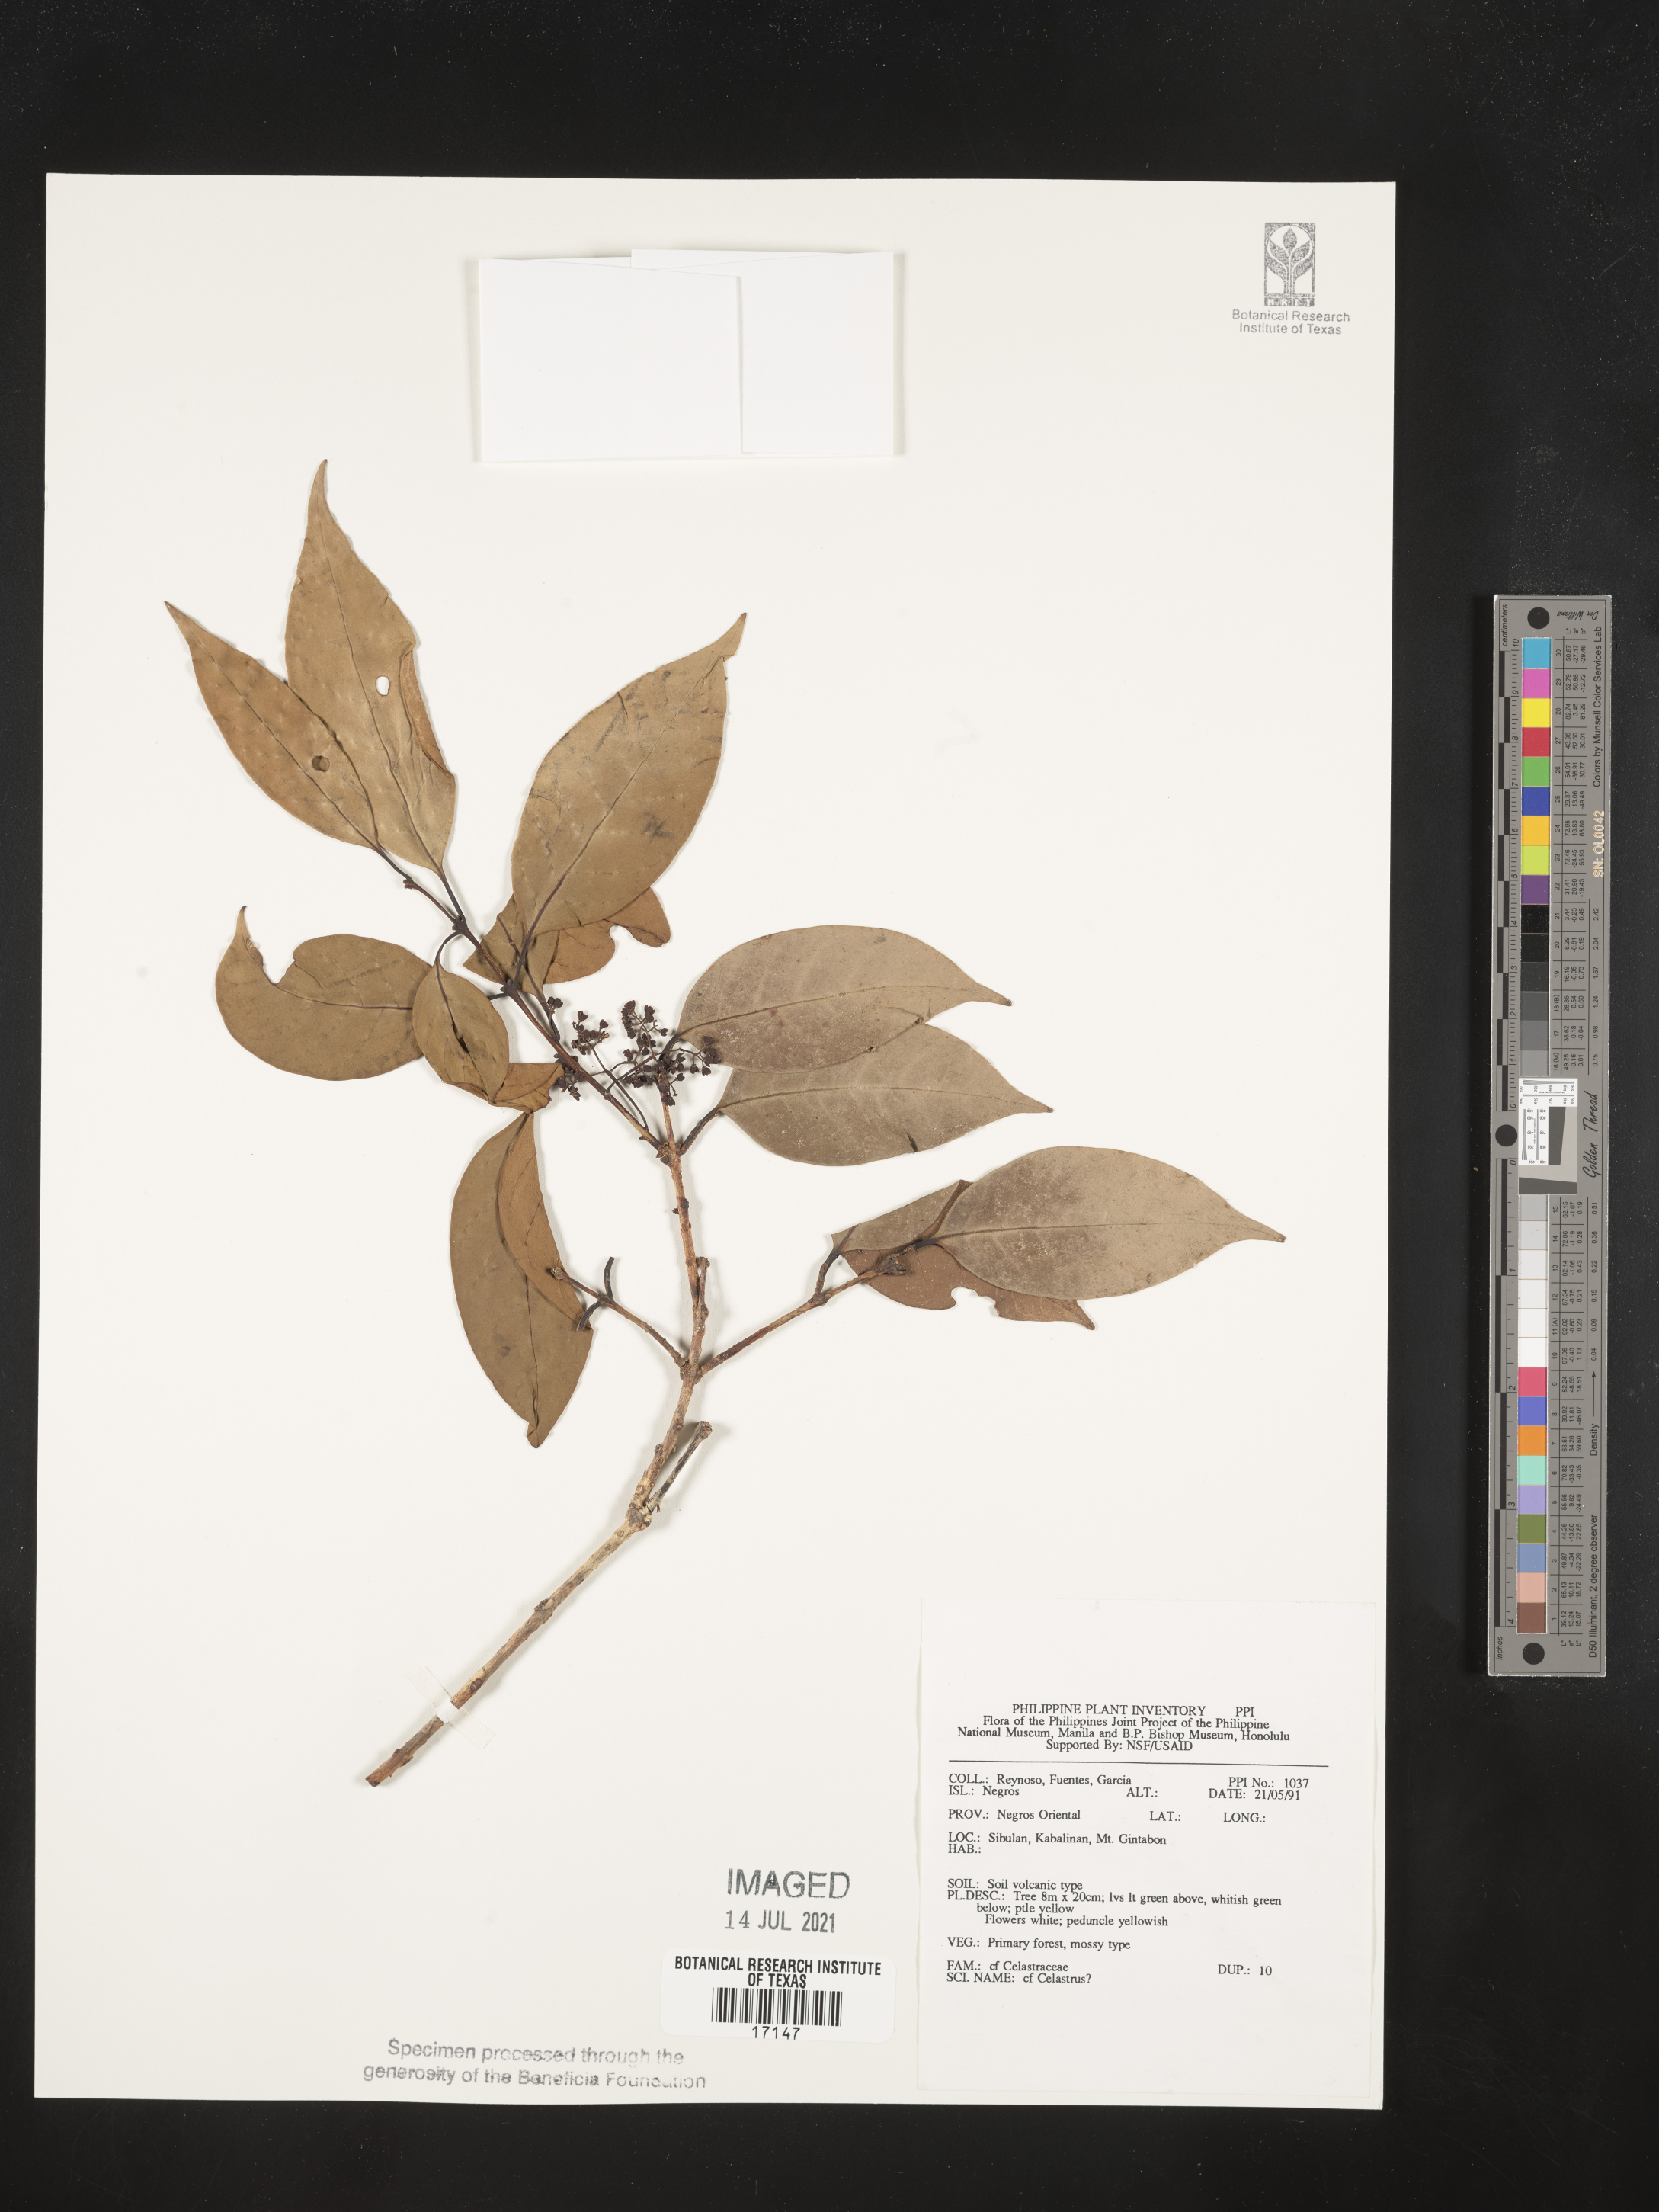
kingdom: Plantae
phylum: Tracheophyta
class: Magnoliopsida
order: Celastrales
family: Celastraceae
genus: Celastrus
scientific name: Celastrus
